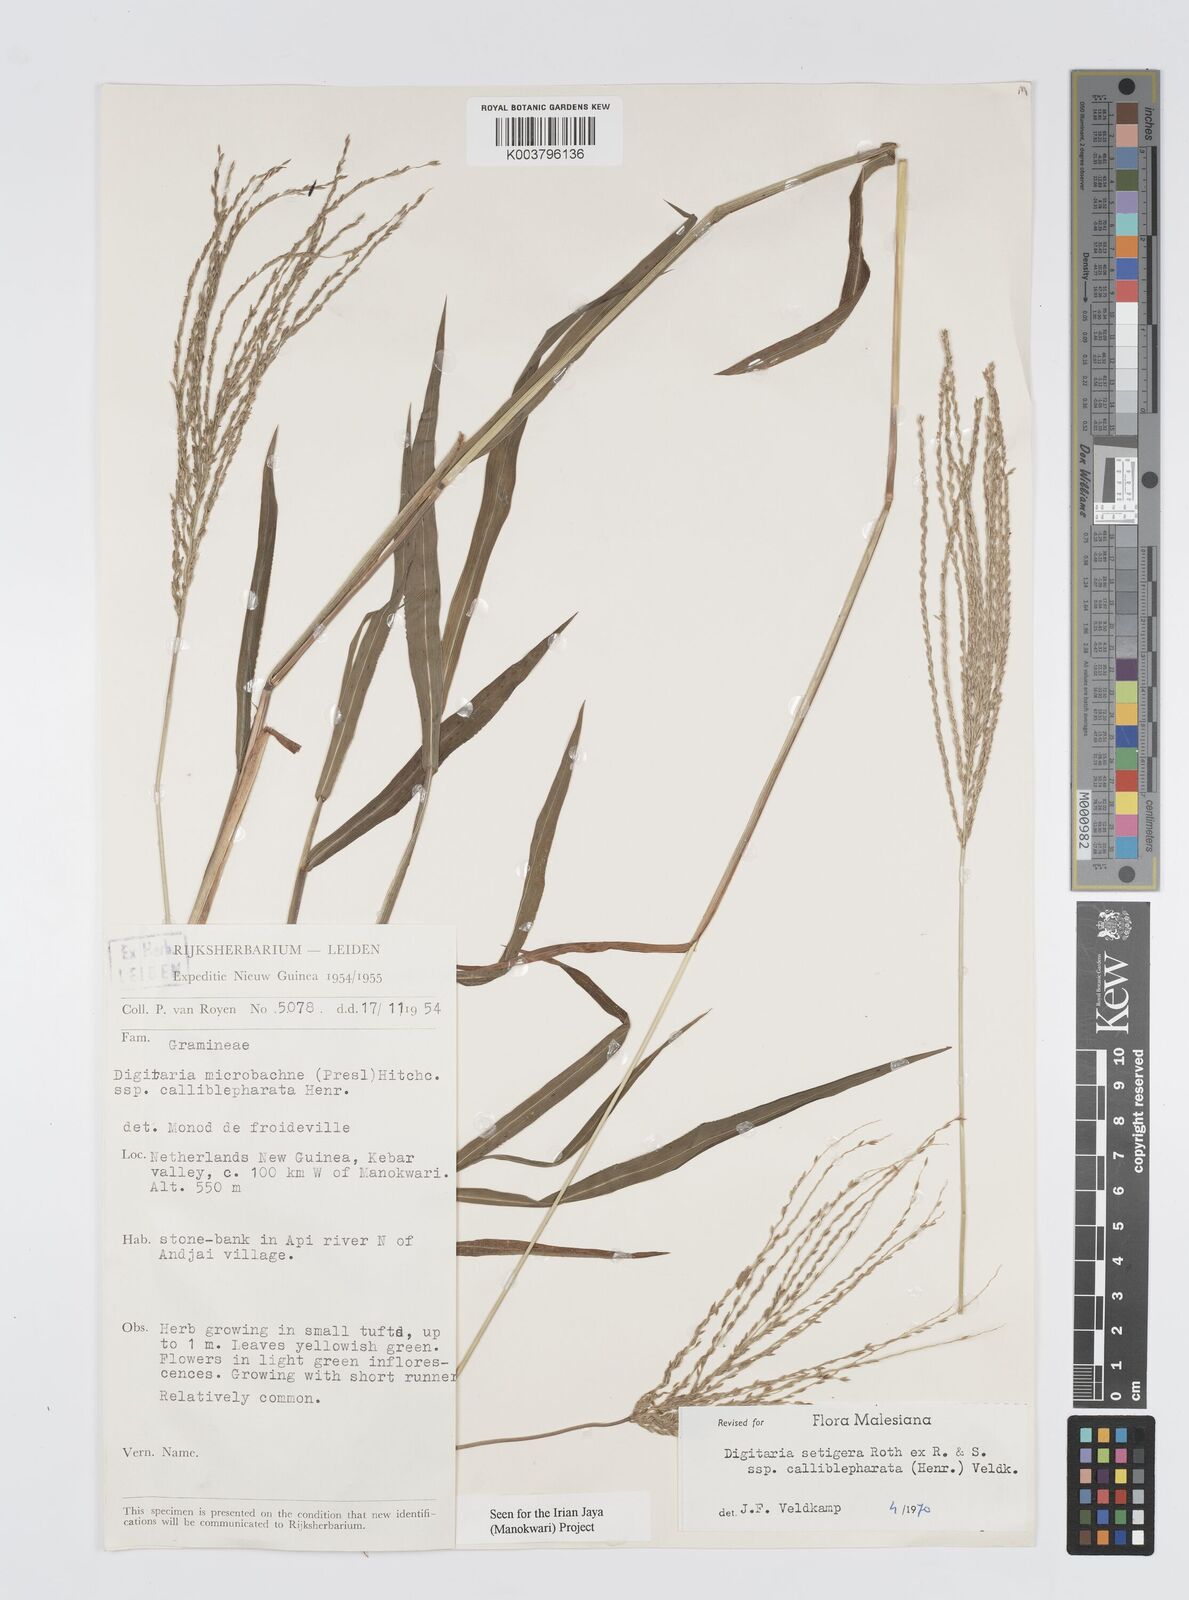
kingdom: Plantae
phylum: Tracheophyta
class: Liliopsida
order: Poales
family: Poaceae
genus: Digitaria
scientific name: Digitaria setigera
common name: East indian crabgrass
